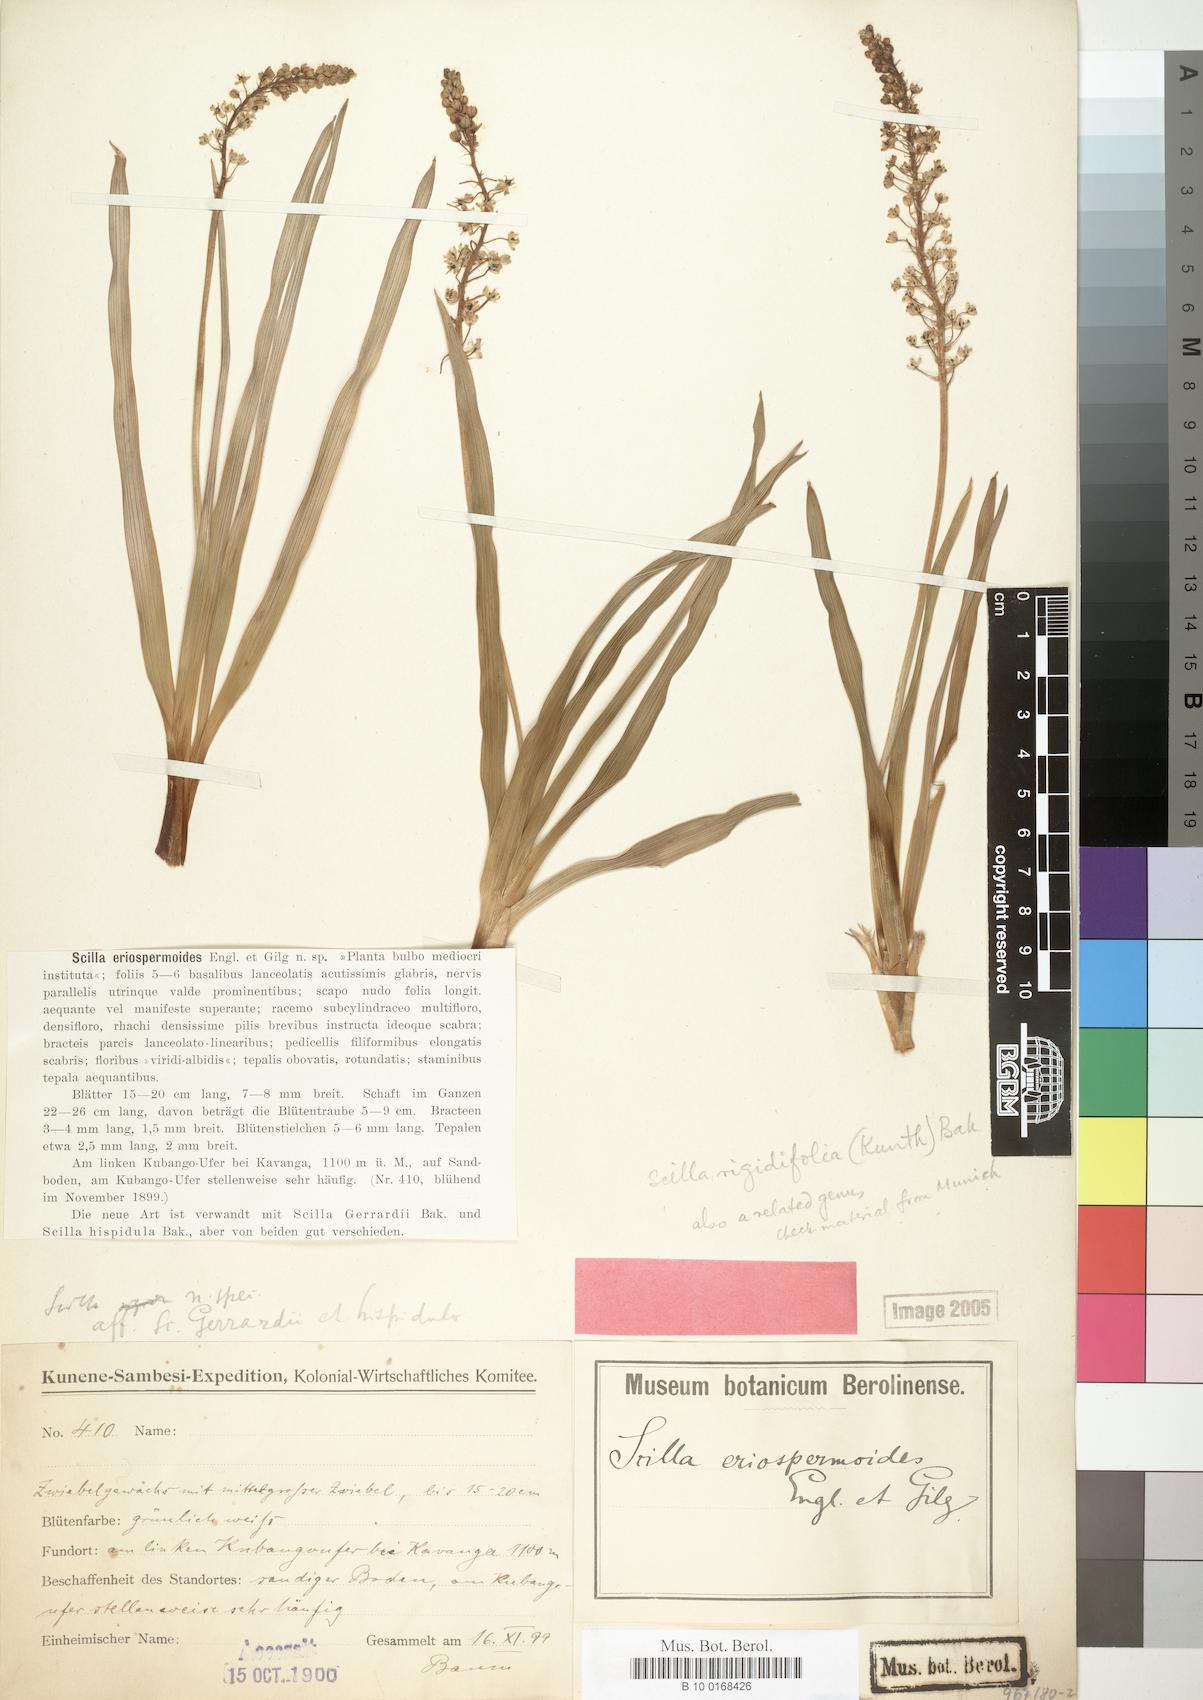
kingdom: Plantae
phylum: Tracheophyta
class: Liliopsida
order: Asparagales
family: Asparagaceae
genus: Schizocarphus
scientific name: Schizocarphus nervosus
